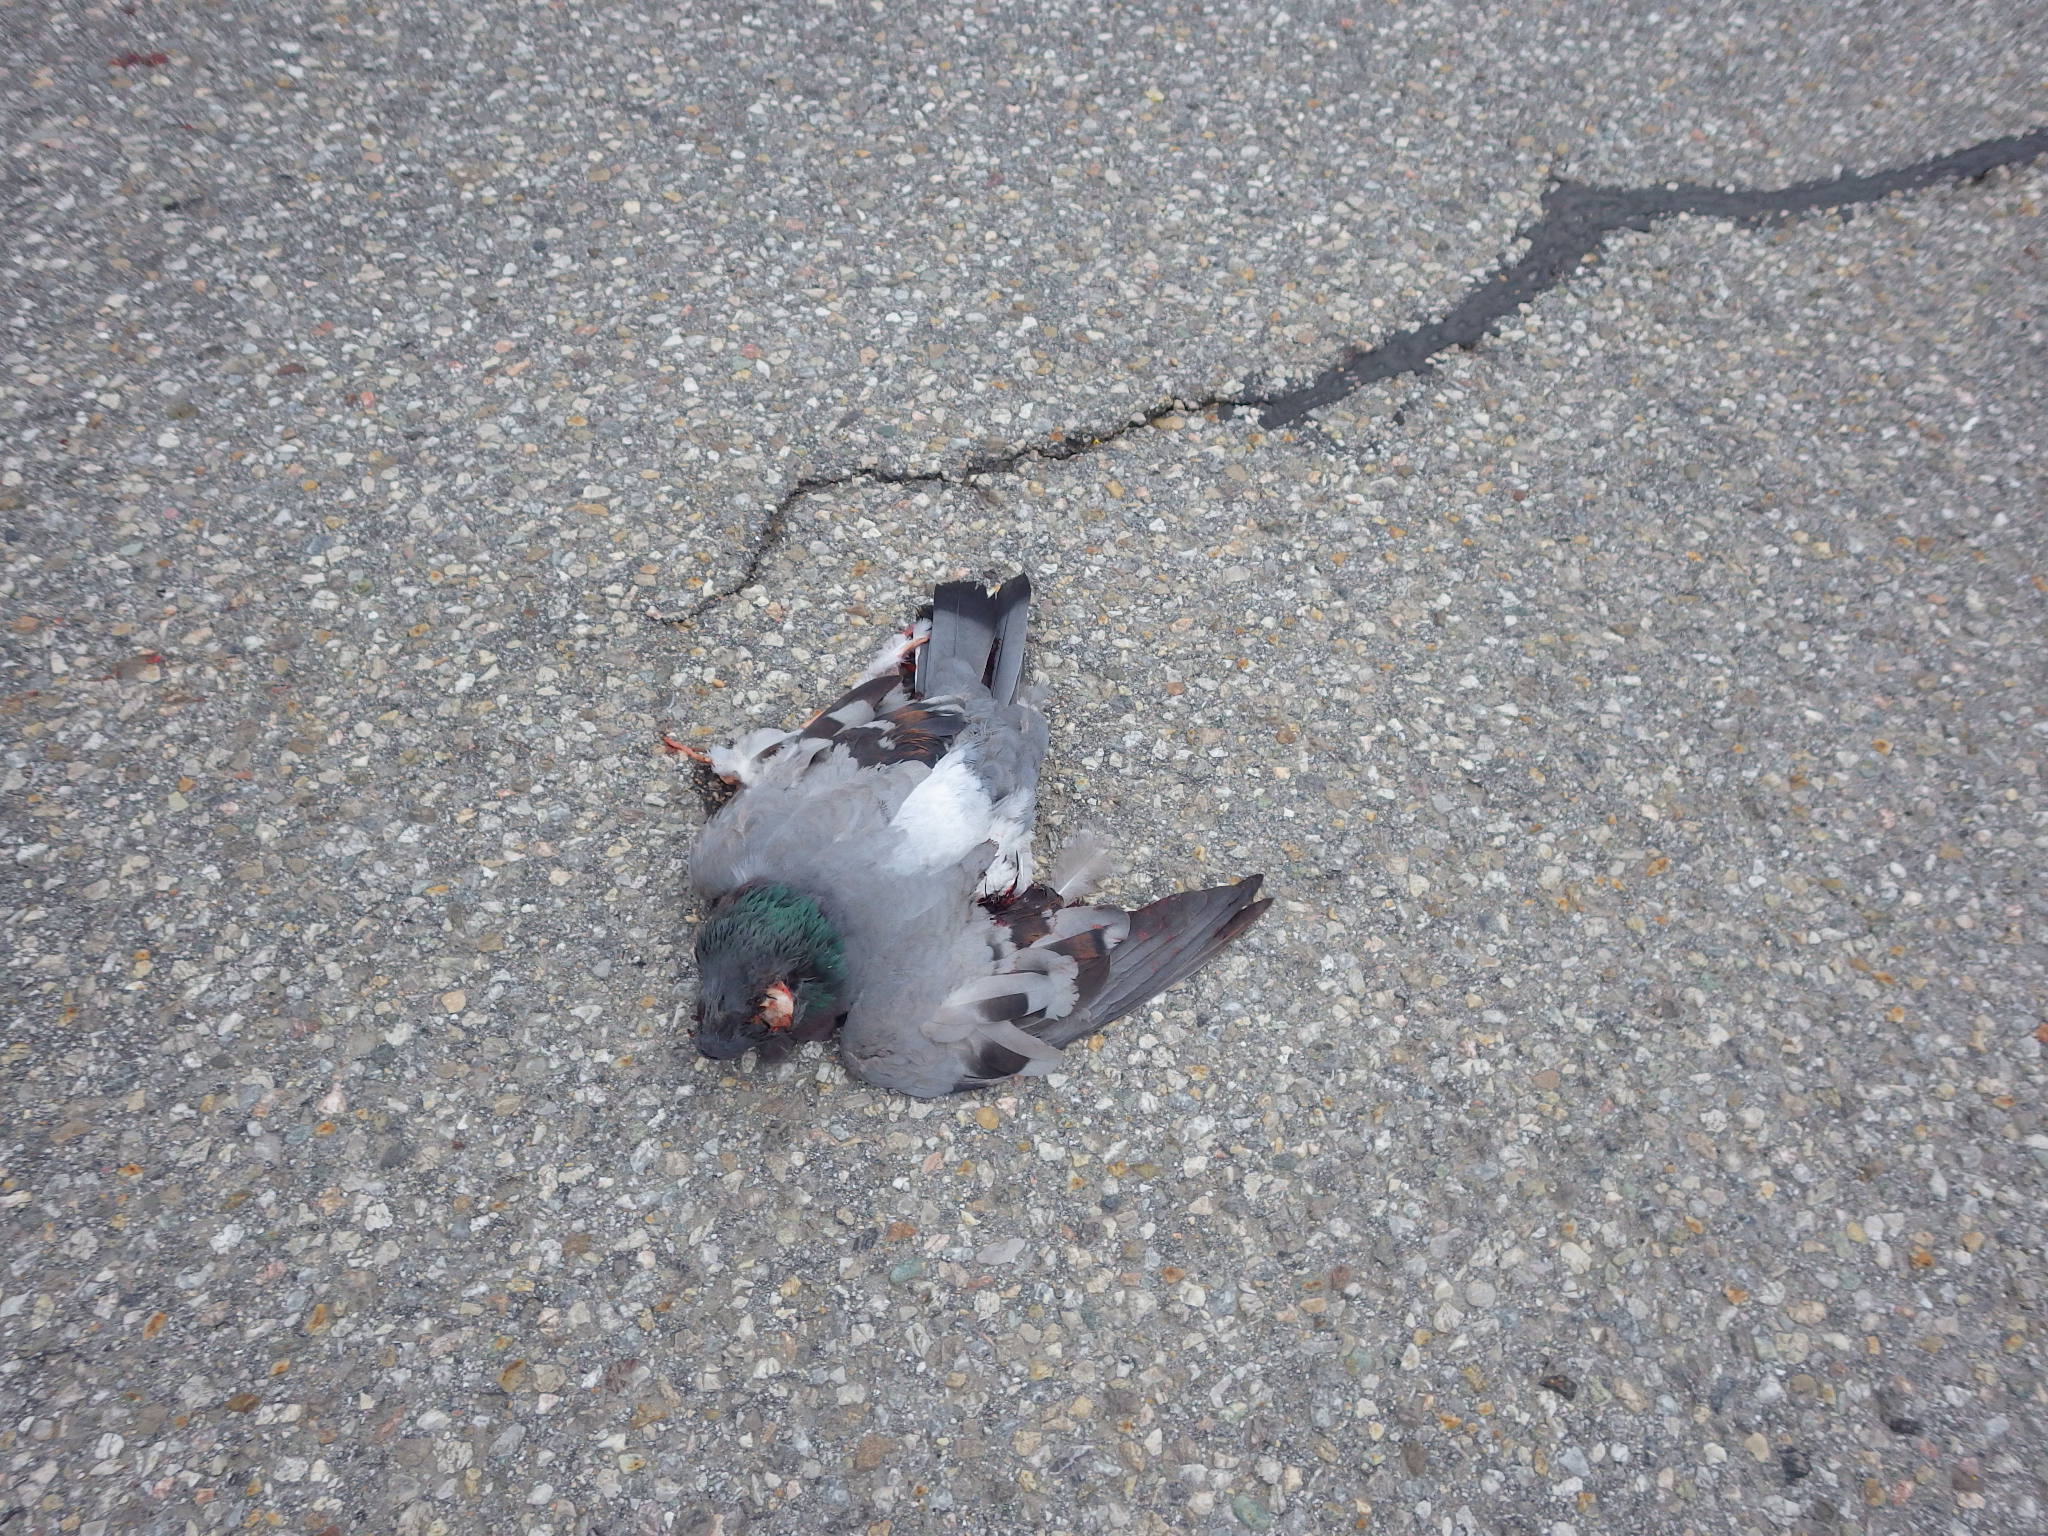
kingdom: Animalia
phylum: Chordata
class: Aves
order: Columbiformes
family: Columbidae
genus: Columba
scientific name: Columba livia
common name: Rock pigeon
